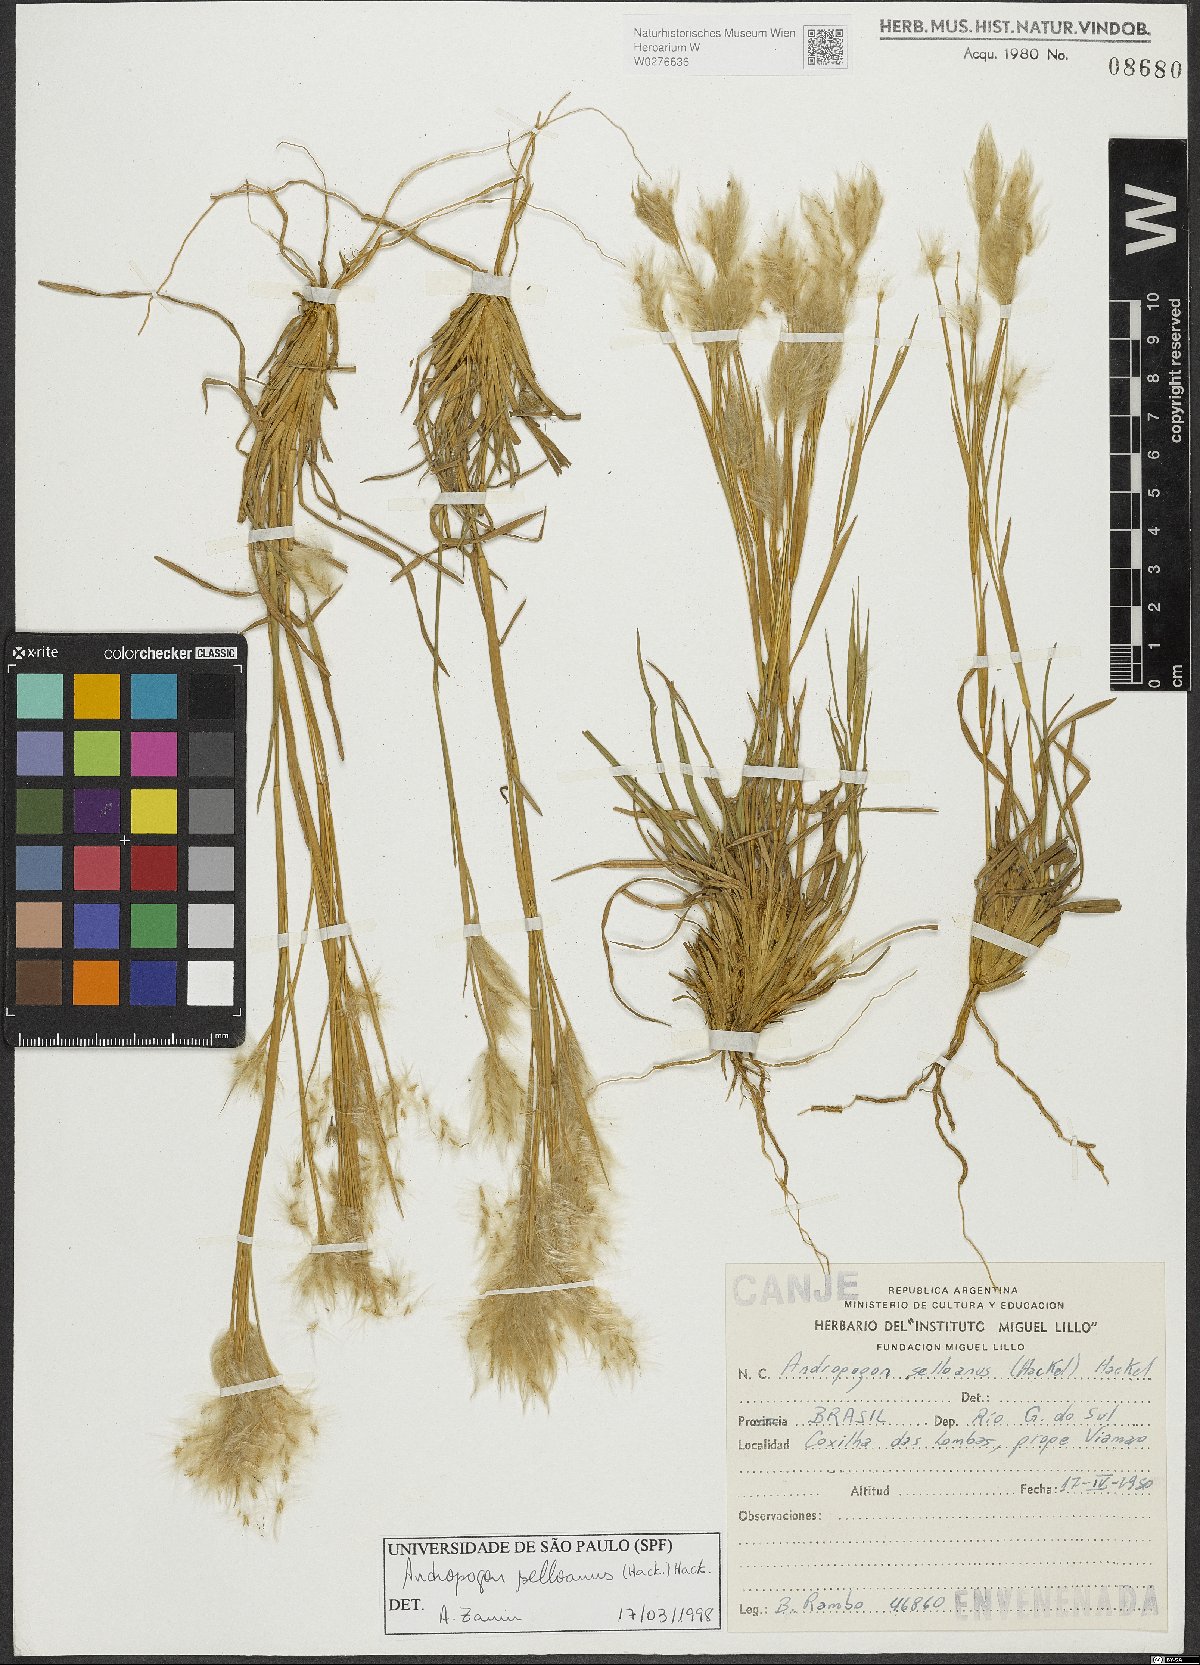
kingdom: Plantae
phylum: Tracheophyta
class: Liliopsida
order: Poales
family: Poaceae
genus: Andropogon
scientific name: Andropogon selloanus
